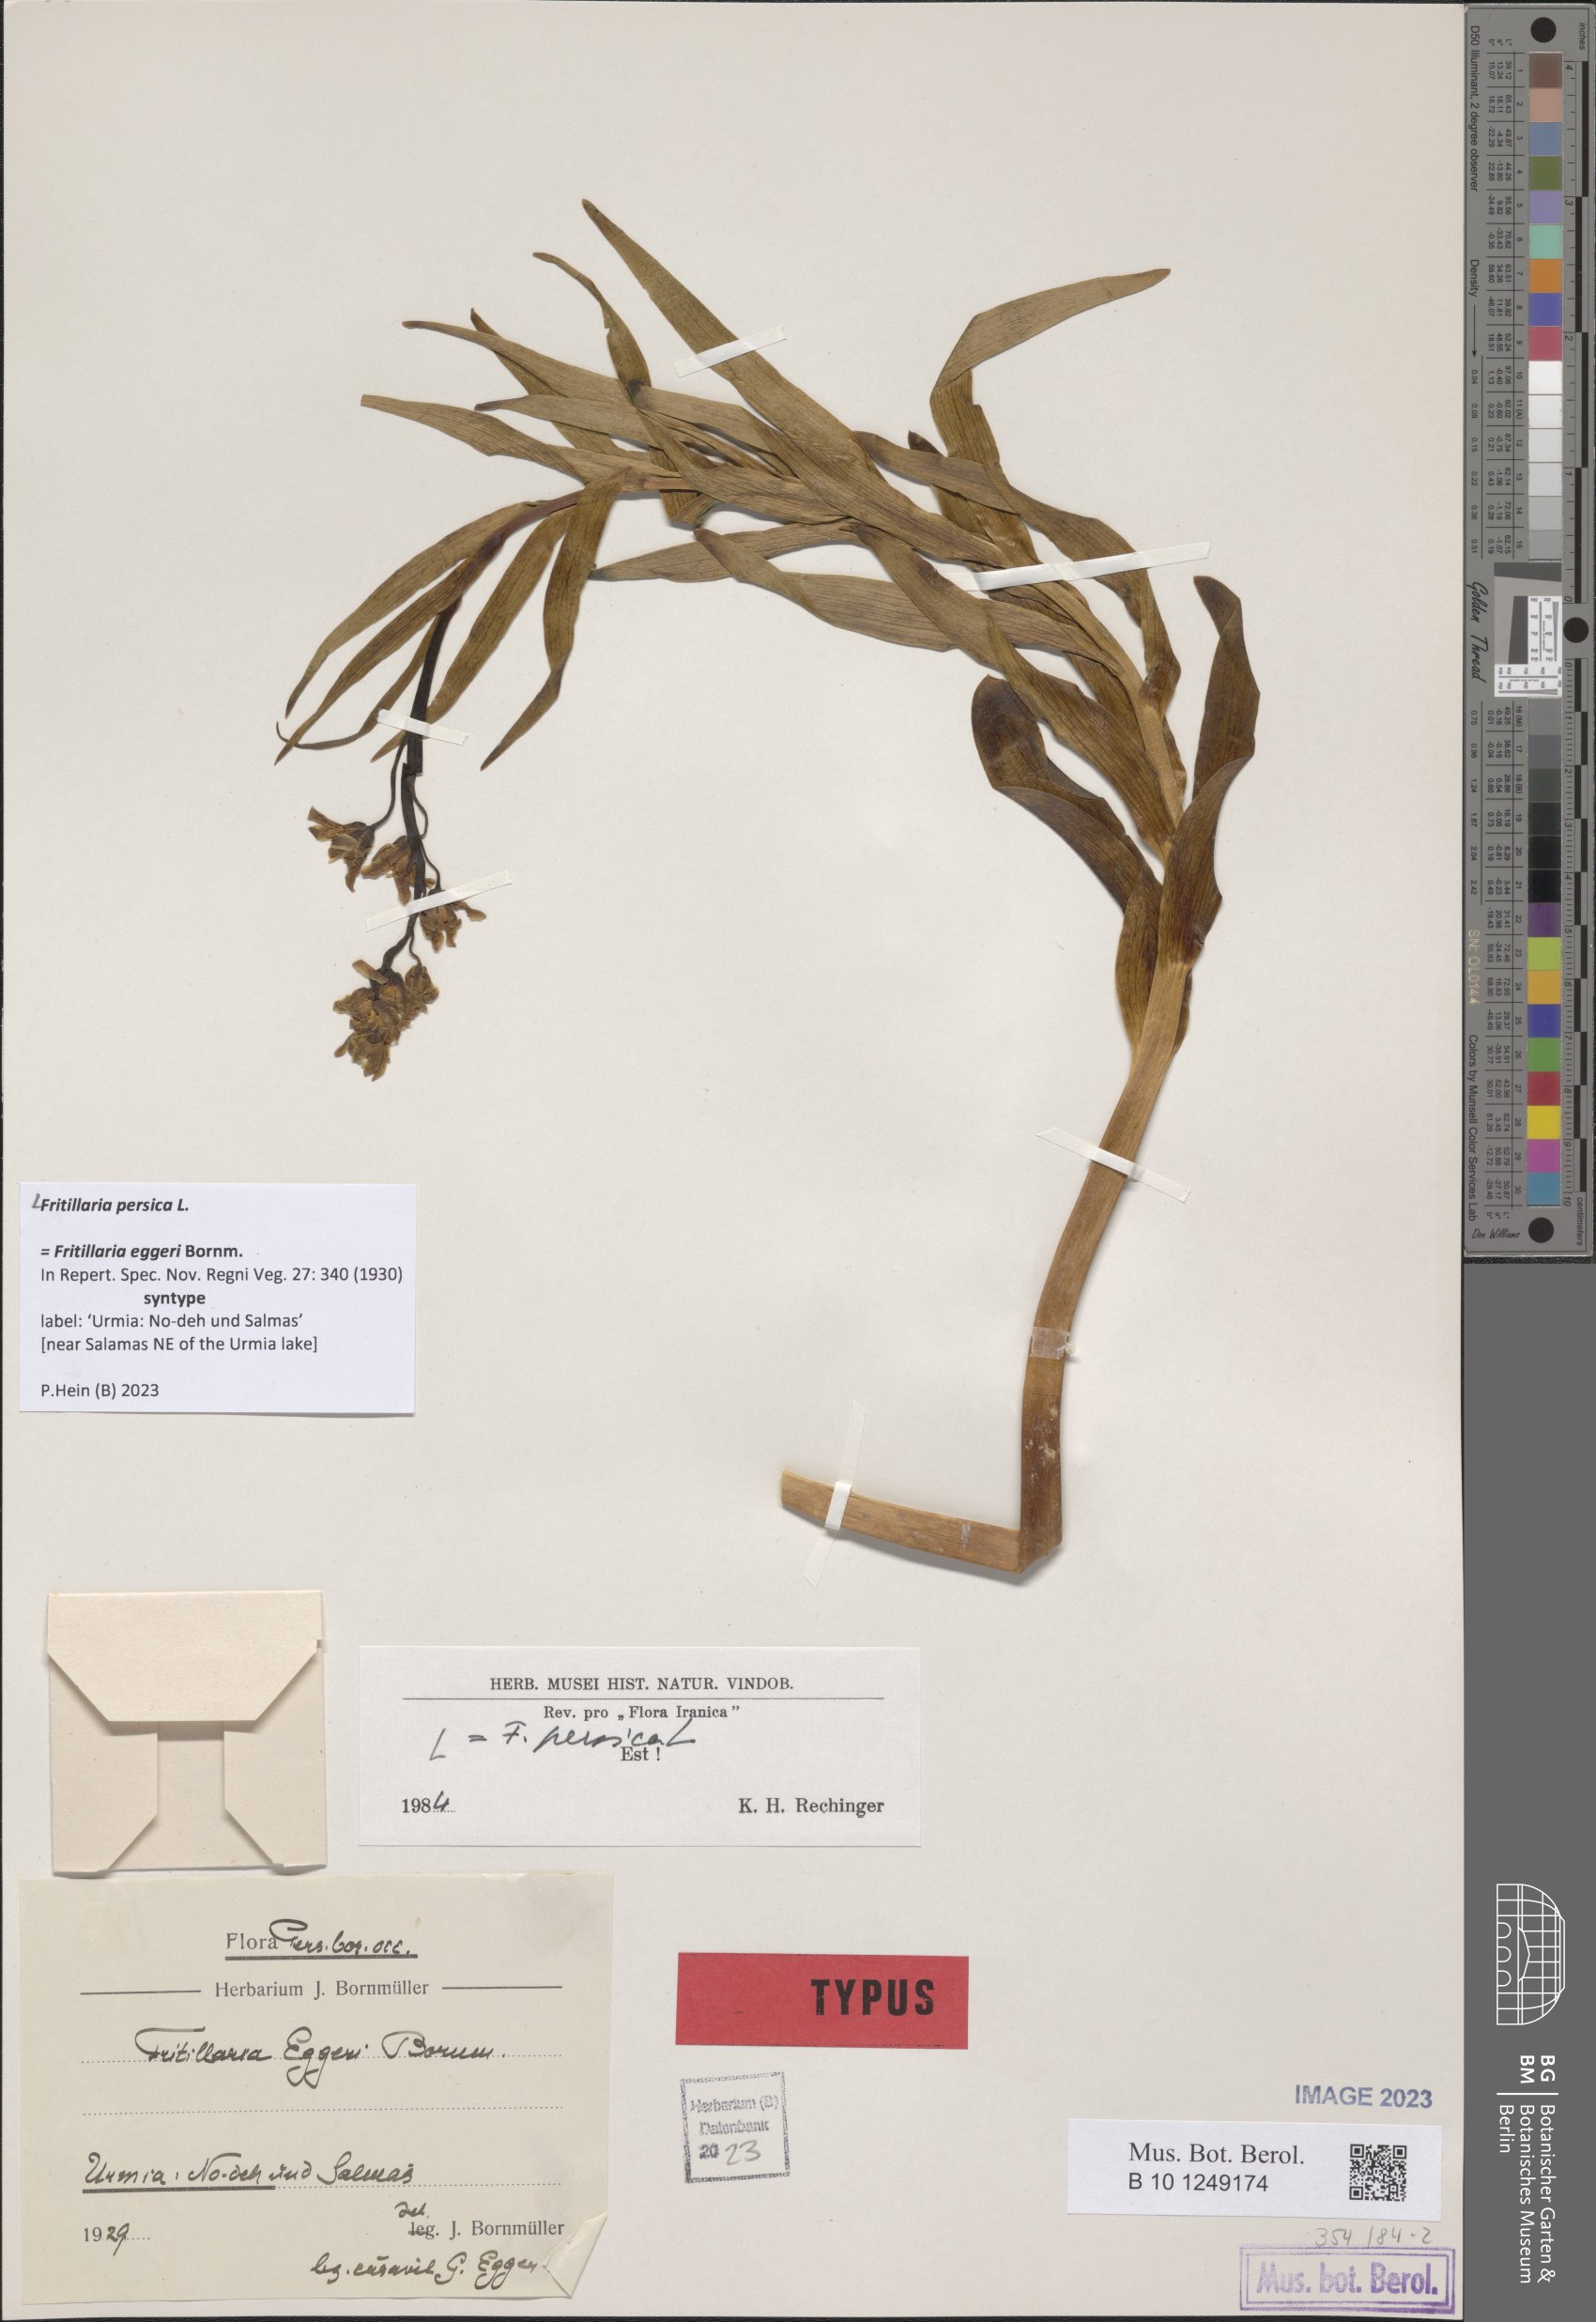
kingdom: Plantae
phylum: Tracheophyta
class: Liliopsida
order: Liliales
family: Liliaceae
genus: Fritillaria
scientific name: Fritillaria persica
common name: Persian fritillary
